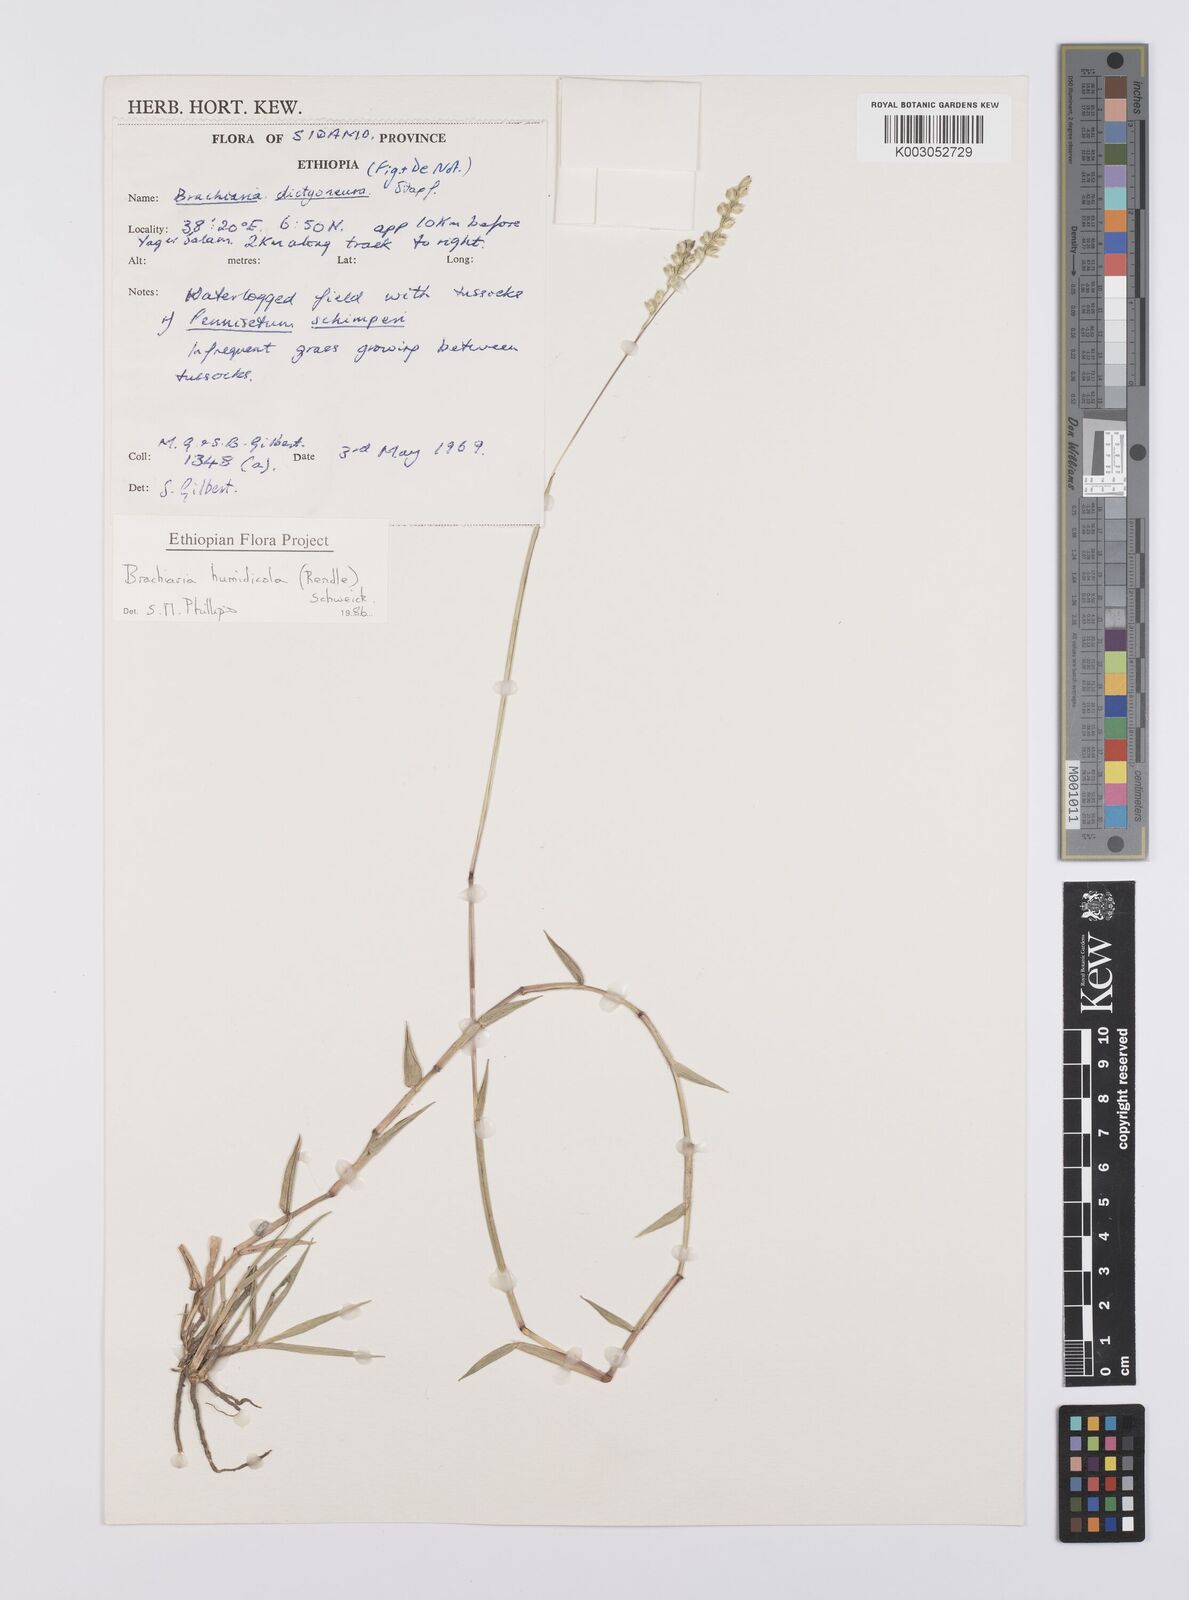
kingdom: Plantae
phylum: Tracheophyta
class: Liliopsida
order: Poales
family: Poaceae
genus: Urochloa
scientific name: Urochloa dictyoneura
